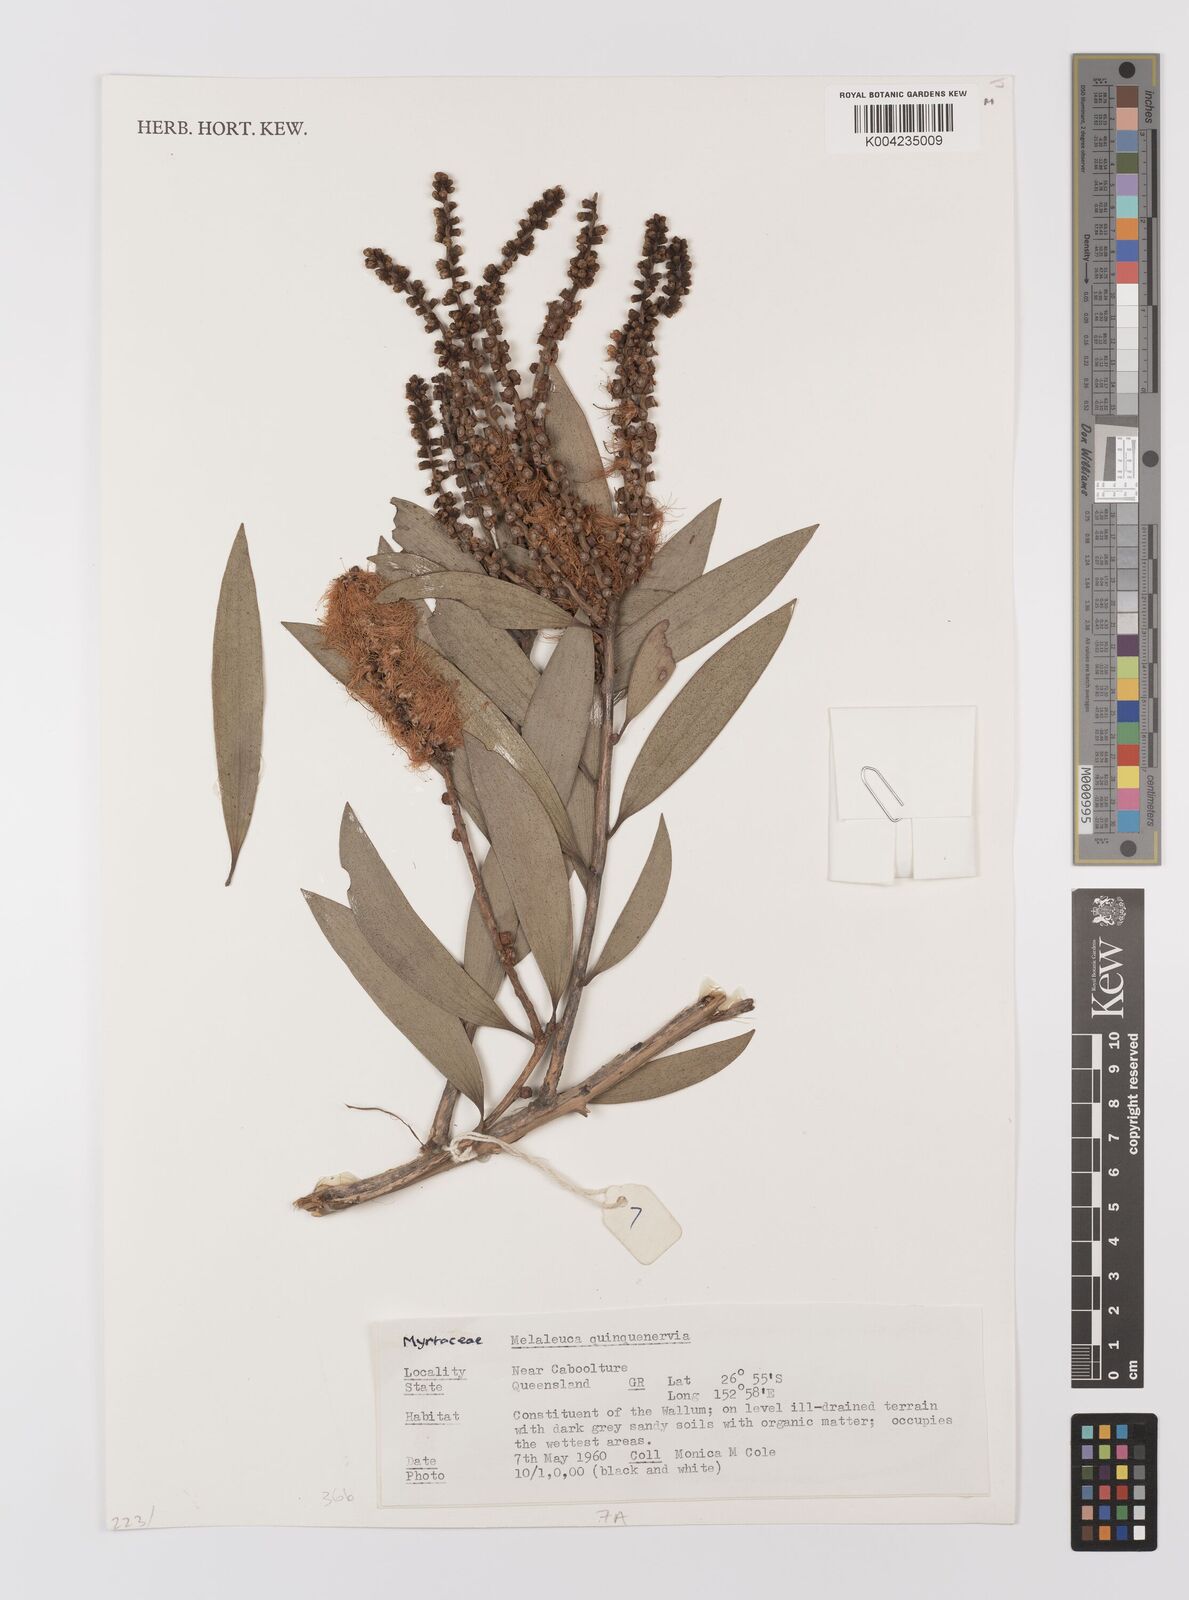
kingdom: Plantae
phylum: Tracheophyta
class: Magnoliopsida
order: Myrtales
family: Myrtaceae
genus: Melaleuca
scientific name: Melaleuca quinquenervia
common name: Punktree
